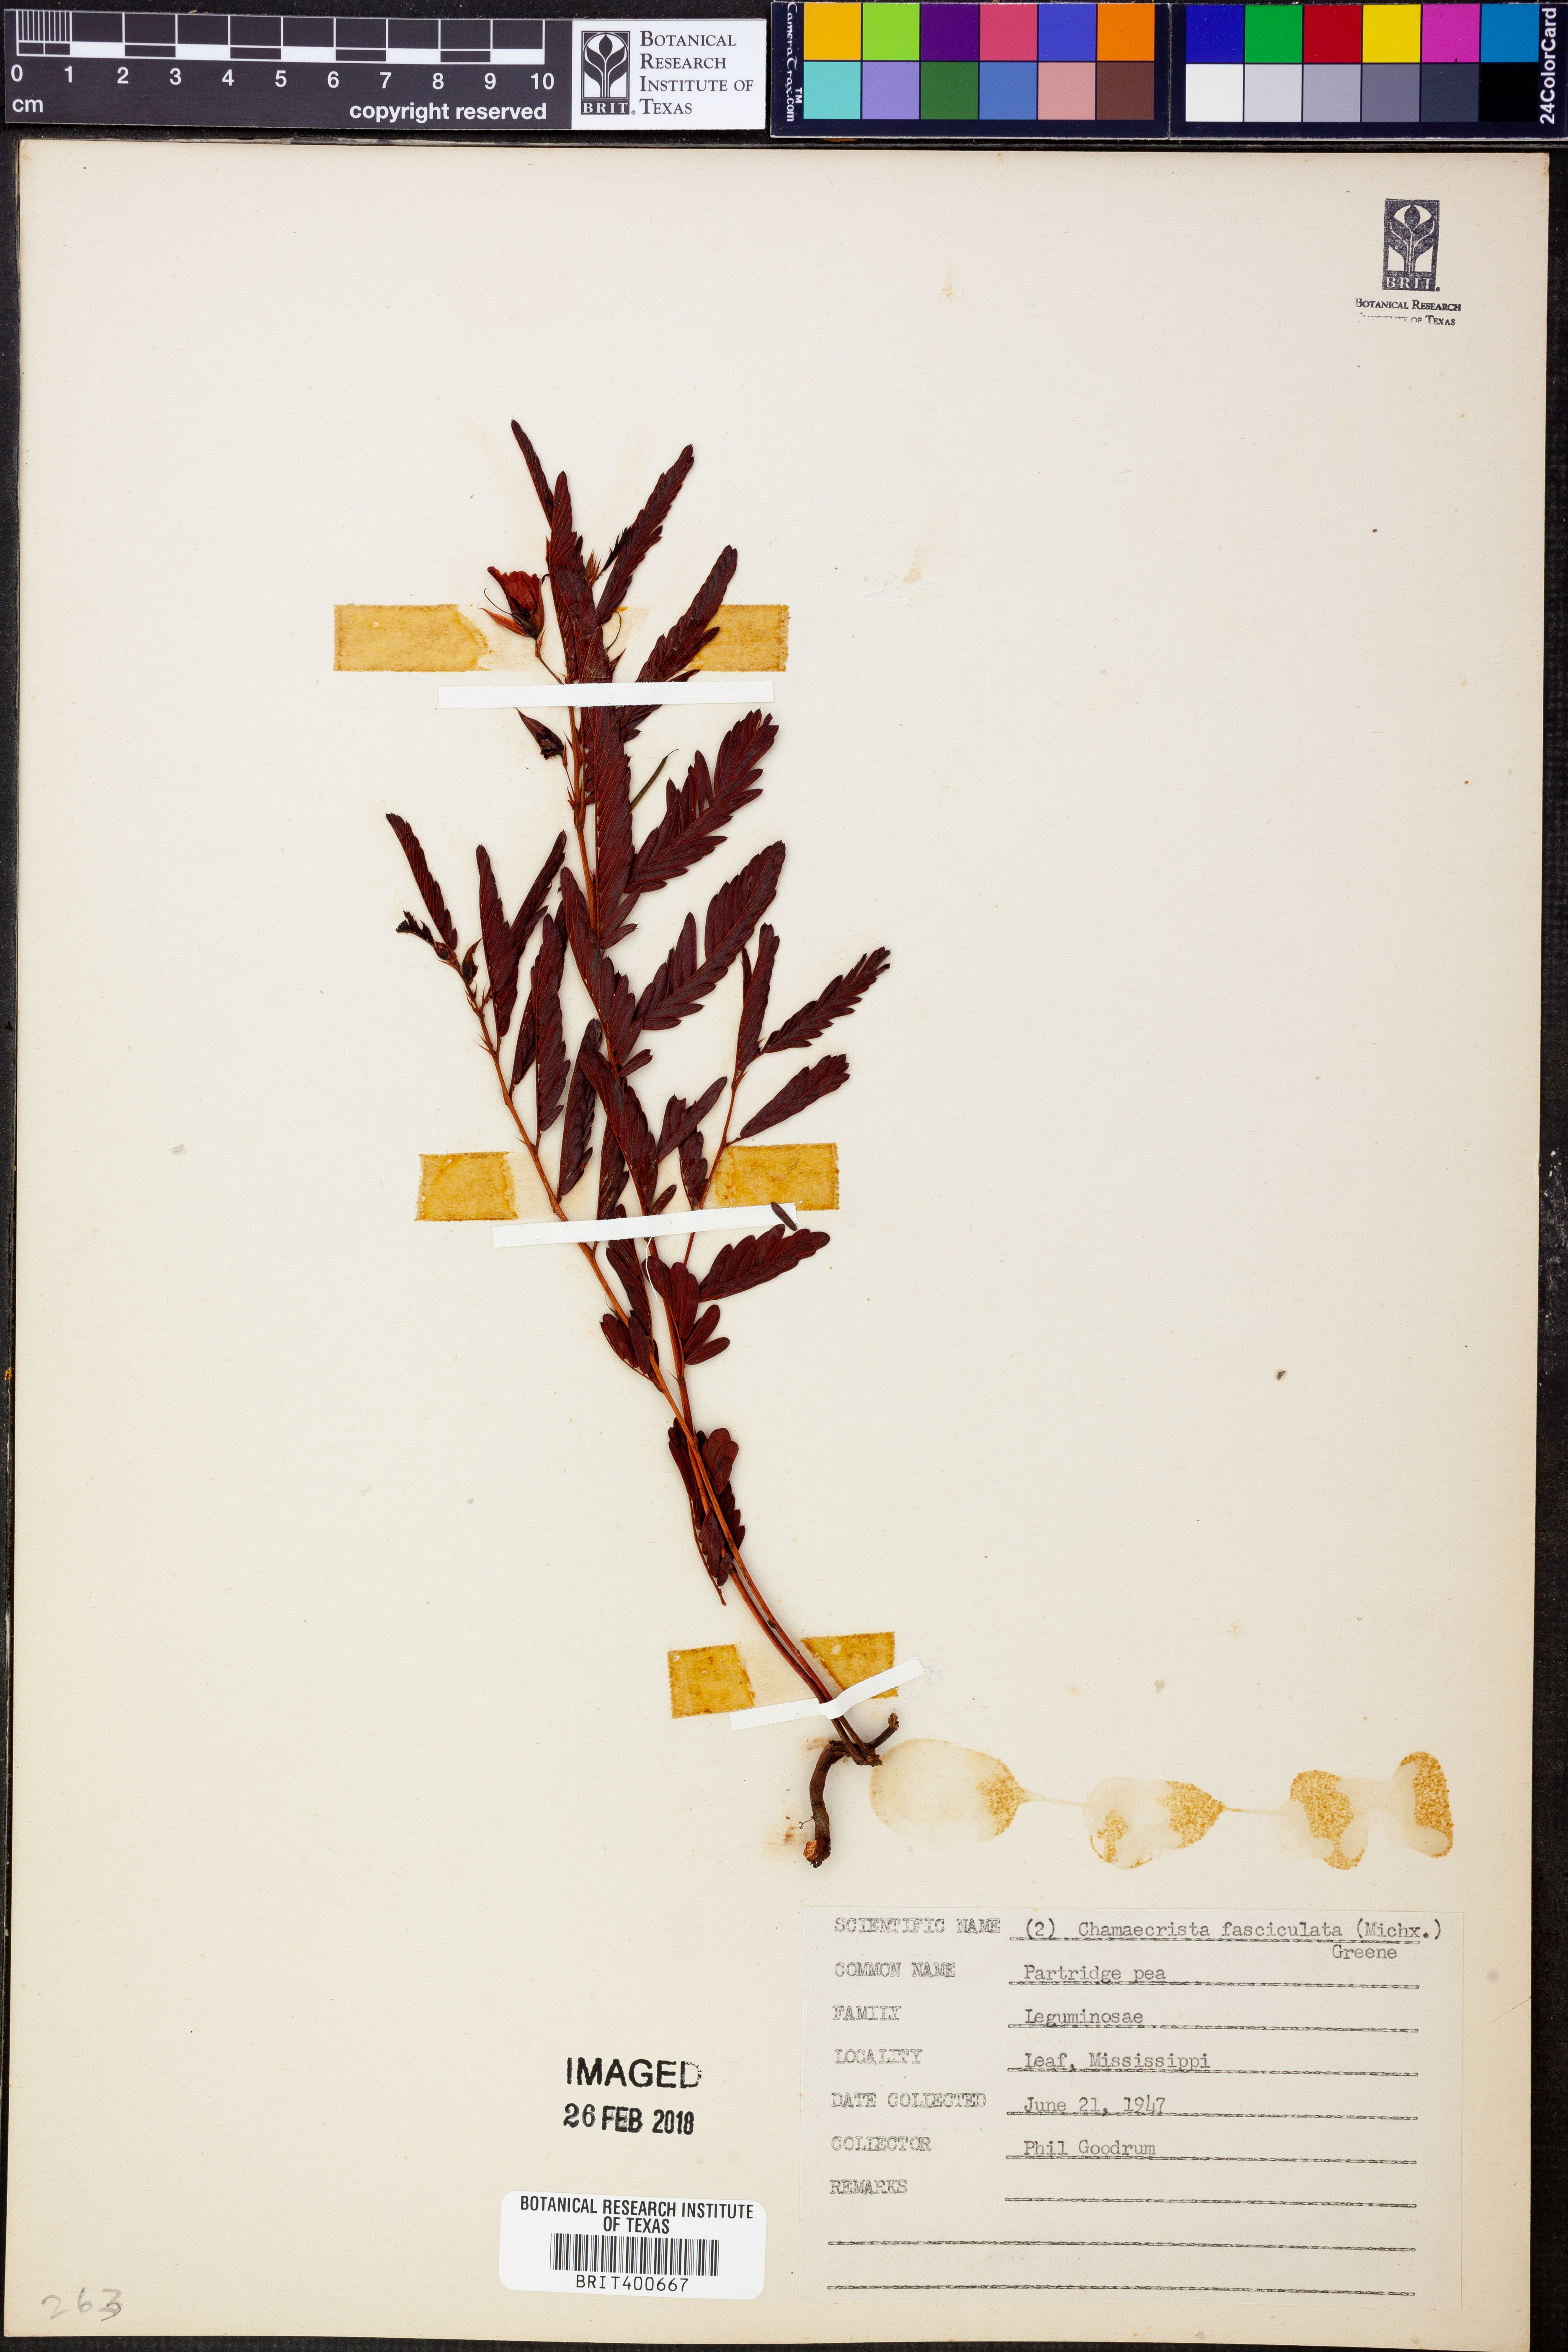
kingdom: Plantae
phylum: Tracheophyta
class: Magnoliopsida
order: Fabales
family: Fabaceae
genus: Chamaecrista
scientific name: Chamaecrista fasciculata
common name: Golden cassia
